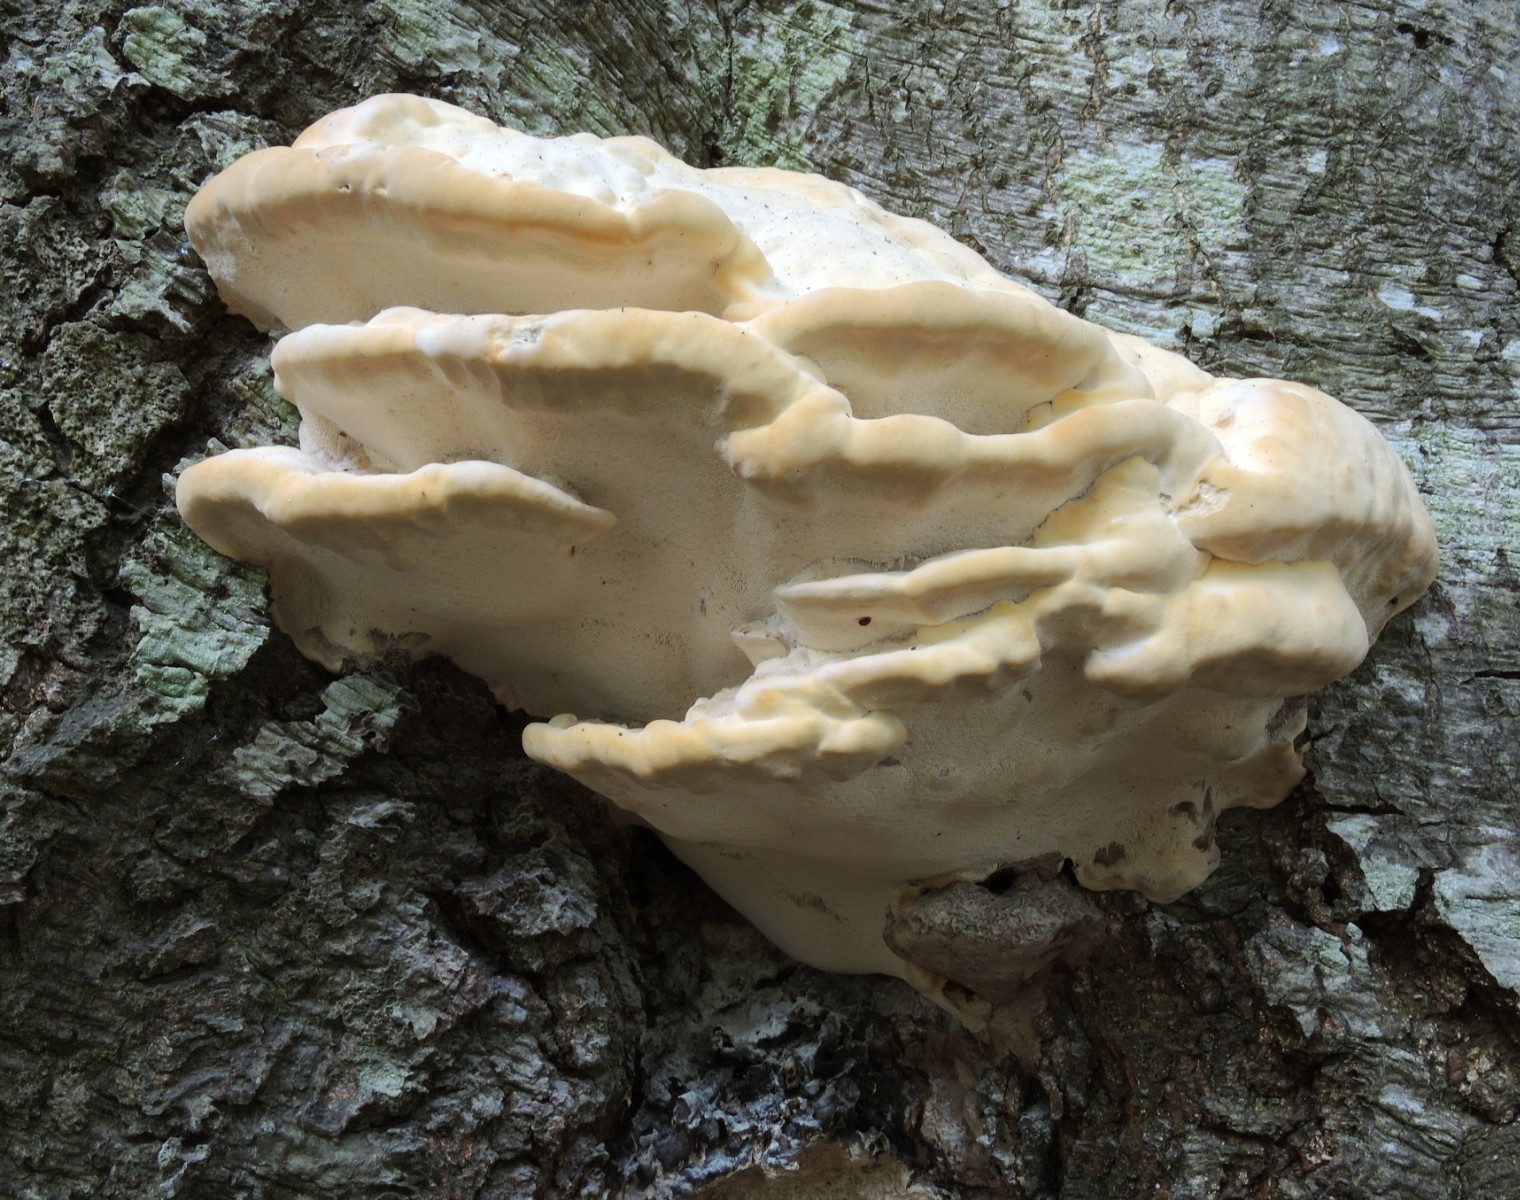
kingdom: Fungi
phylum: Basidiomycota
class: Agaricomycetes
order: Polyporales
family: Polyporaceae
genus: Vanderbylia
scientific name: Vanderbylia fraxinea
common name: stor kanelporesvamp
